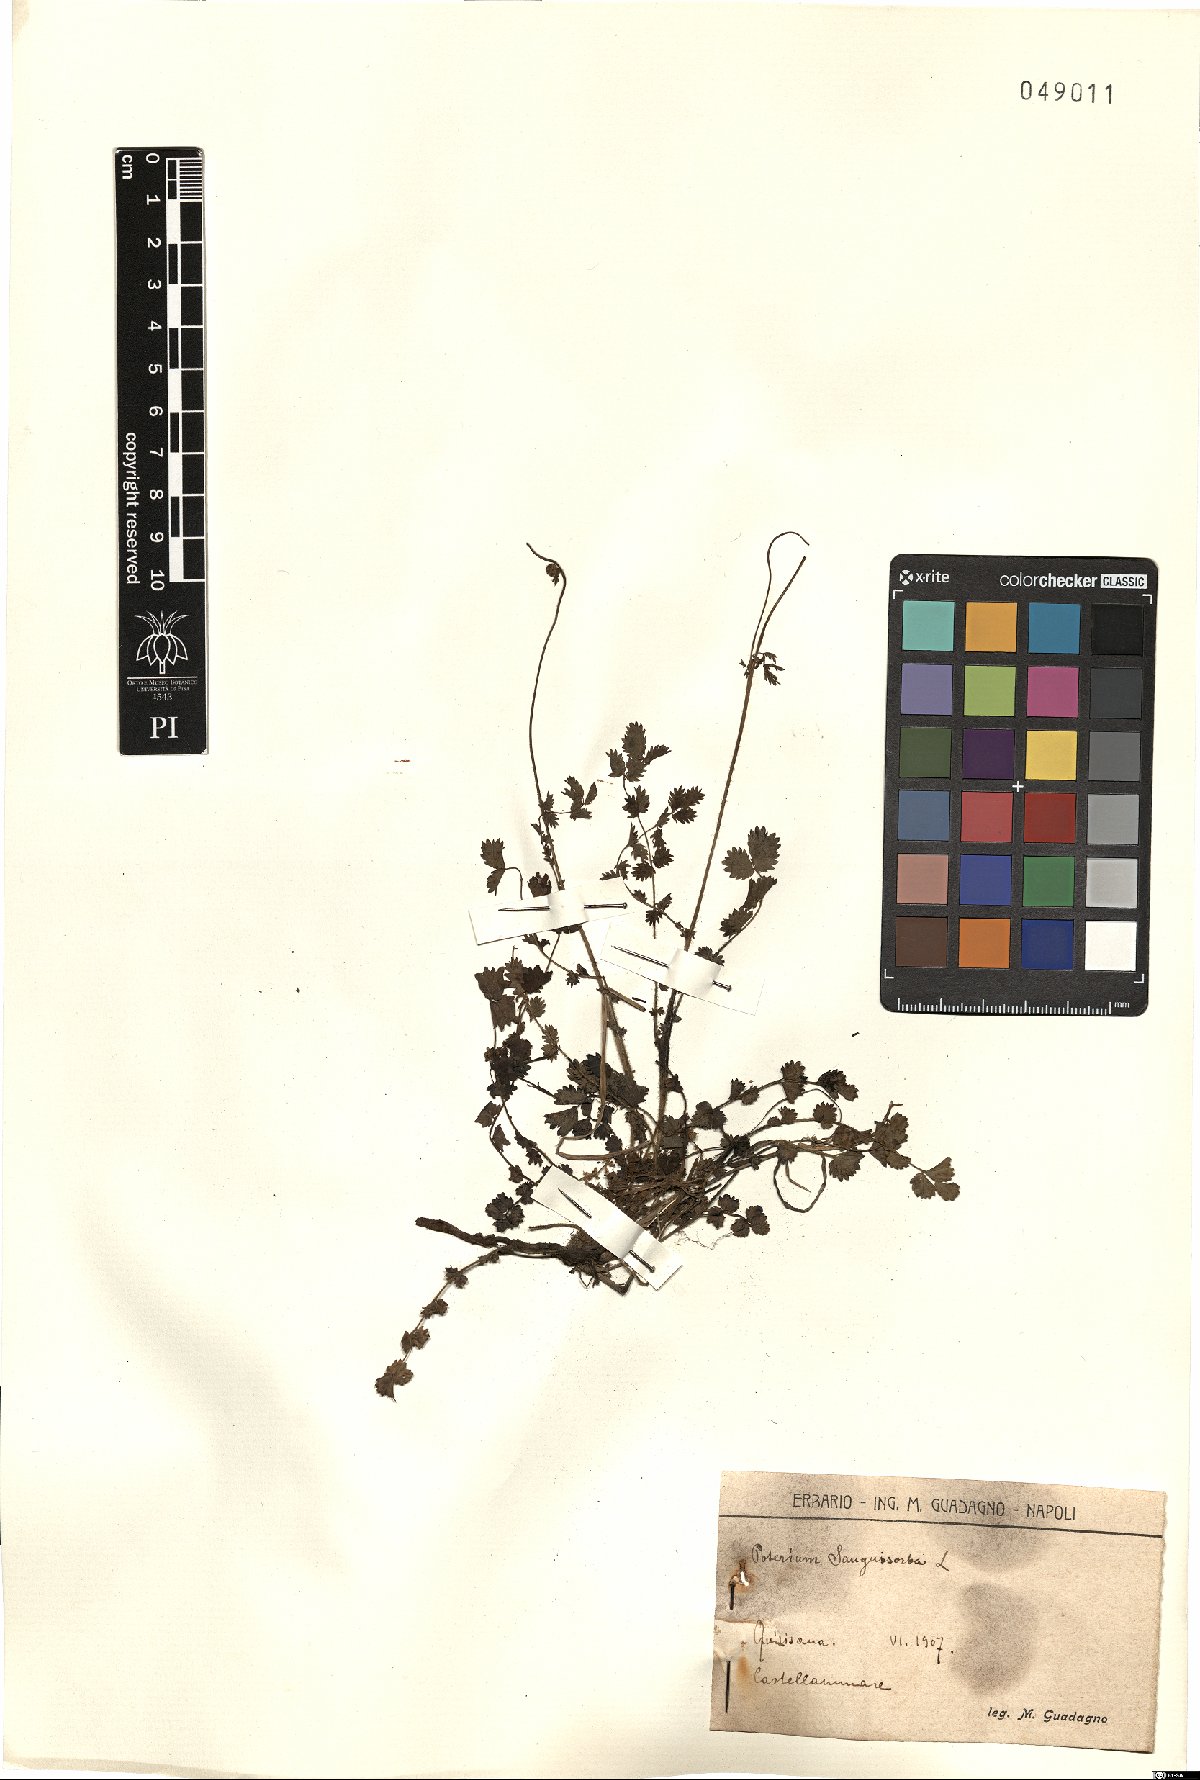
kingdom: Plantae
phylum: Tracheophyta
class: Magnoliopsida
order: Rosales
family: Rosaceae
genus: Poterium
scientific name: Poterium sanguisorba
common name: Salad burnet
